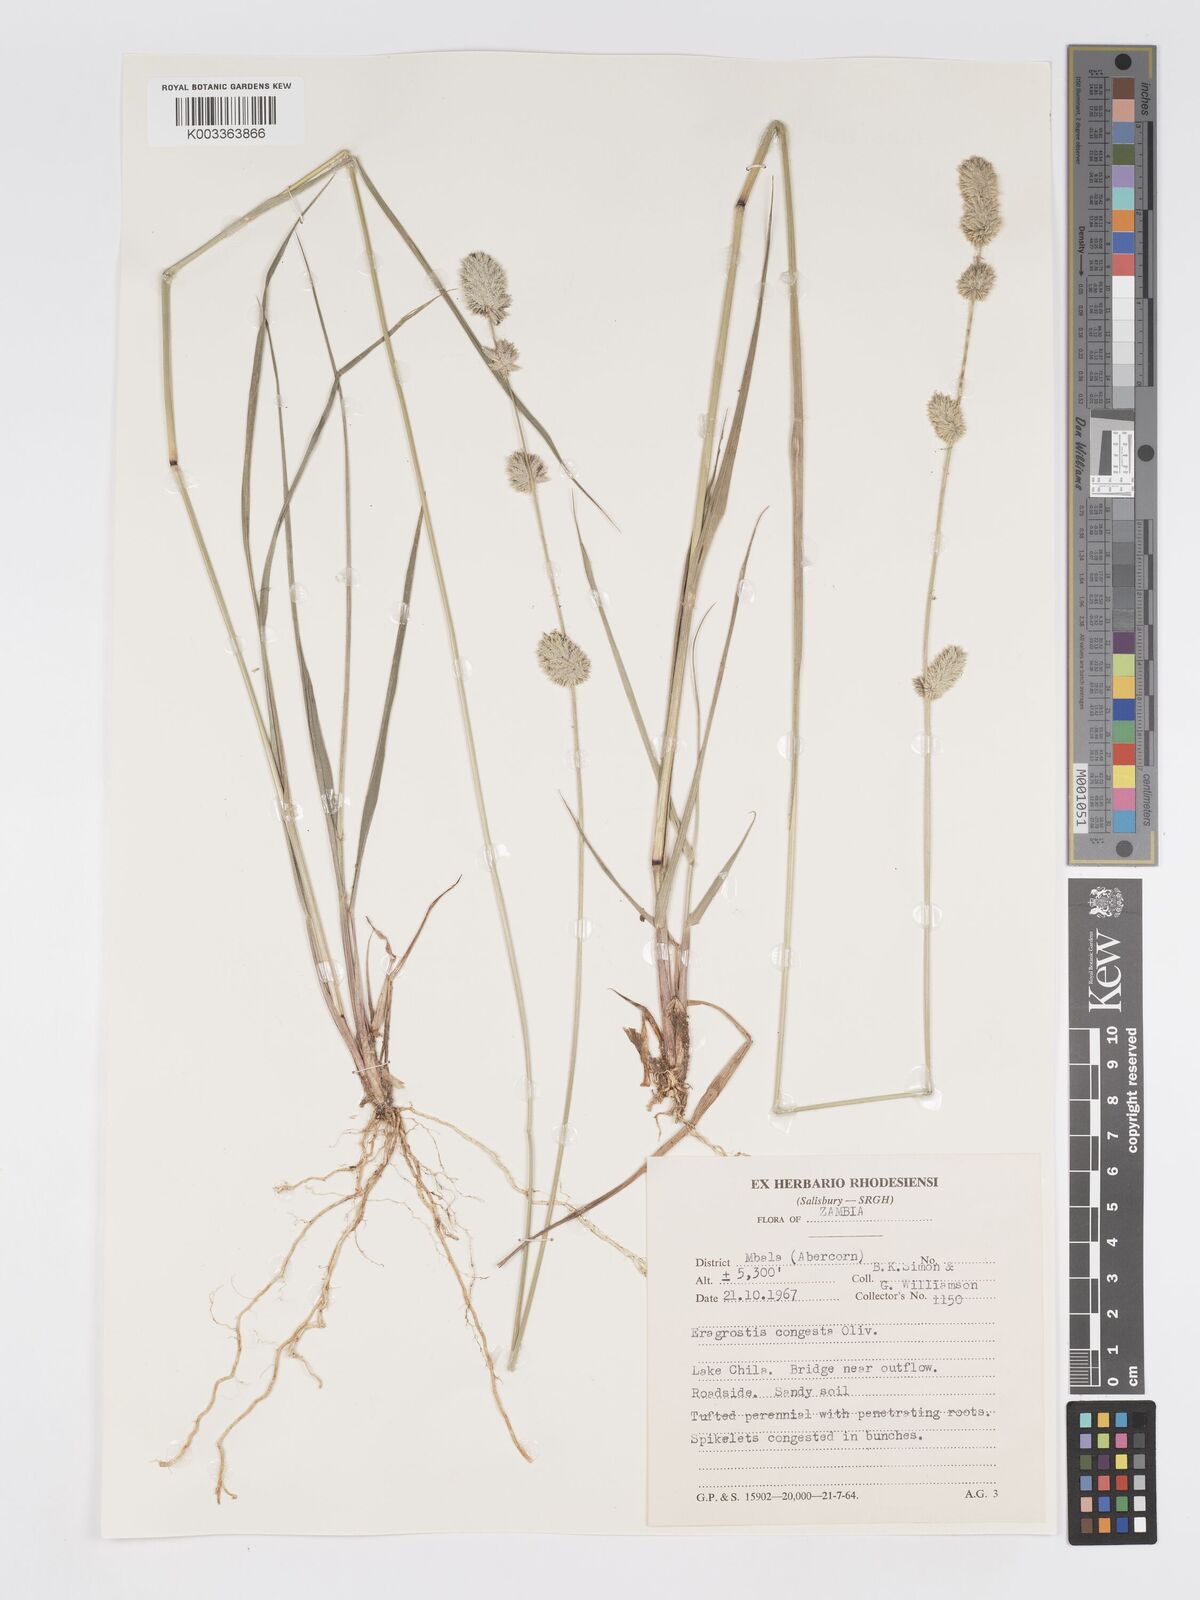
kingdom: Plantae
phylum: Tracheophyta
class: Liliopsida
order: Poales
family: Poaceae
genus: Eragrostis
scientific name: Eragrostis congesta
